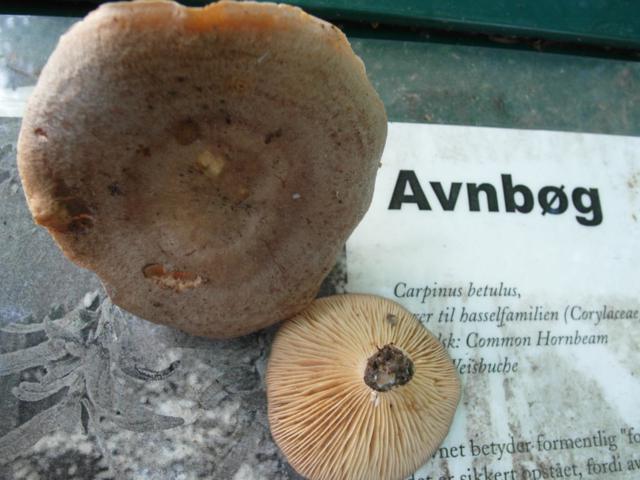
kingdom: Fungi
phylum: Basidiomycota
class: Agaricomycetes
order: Russulales
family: Russulaceae
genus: Lactarius
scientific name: Lactarius circellatus
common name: avnbøg-mælkehat
